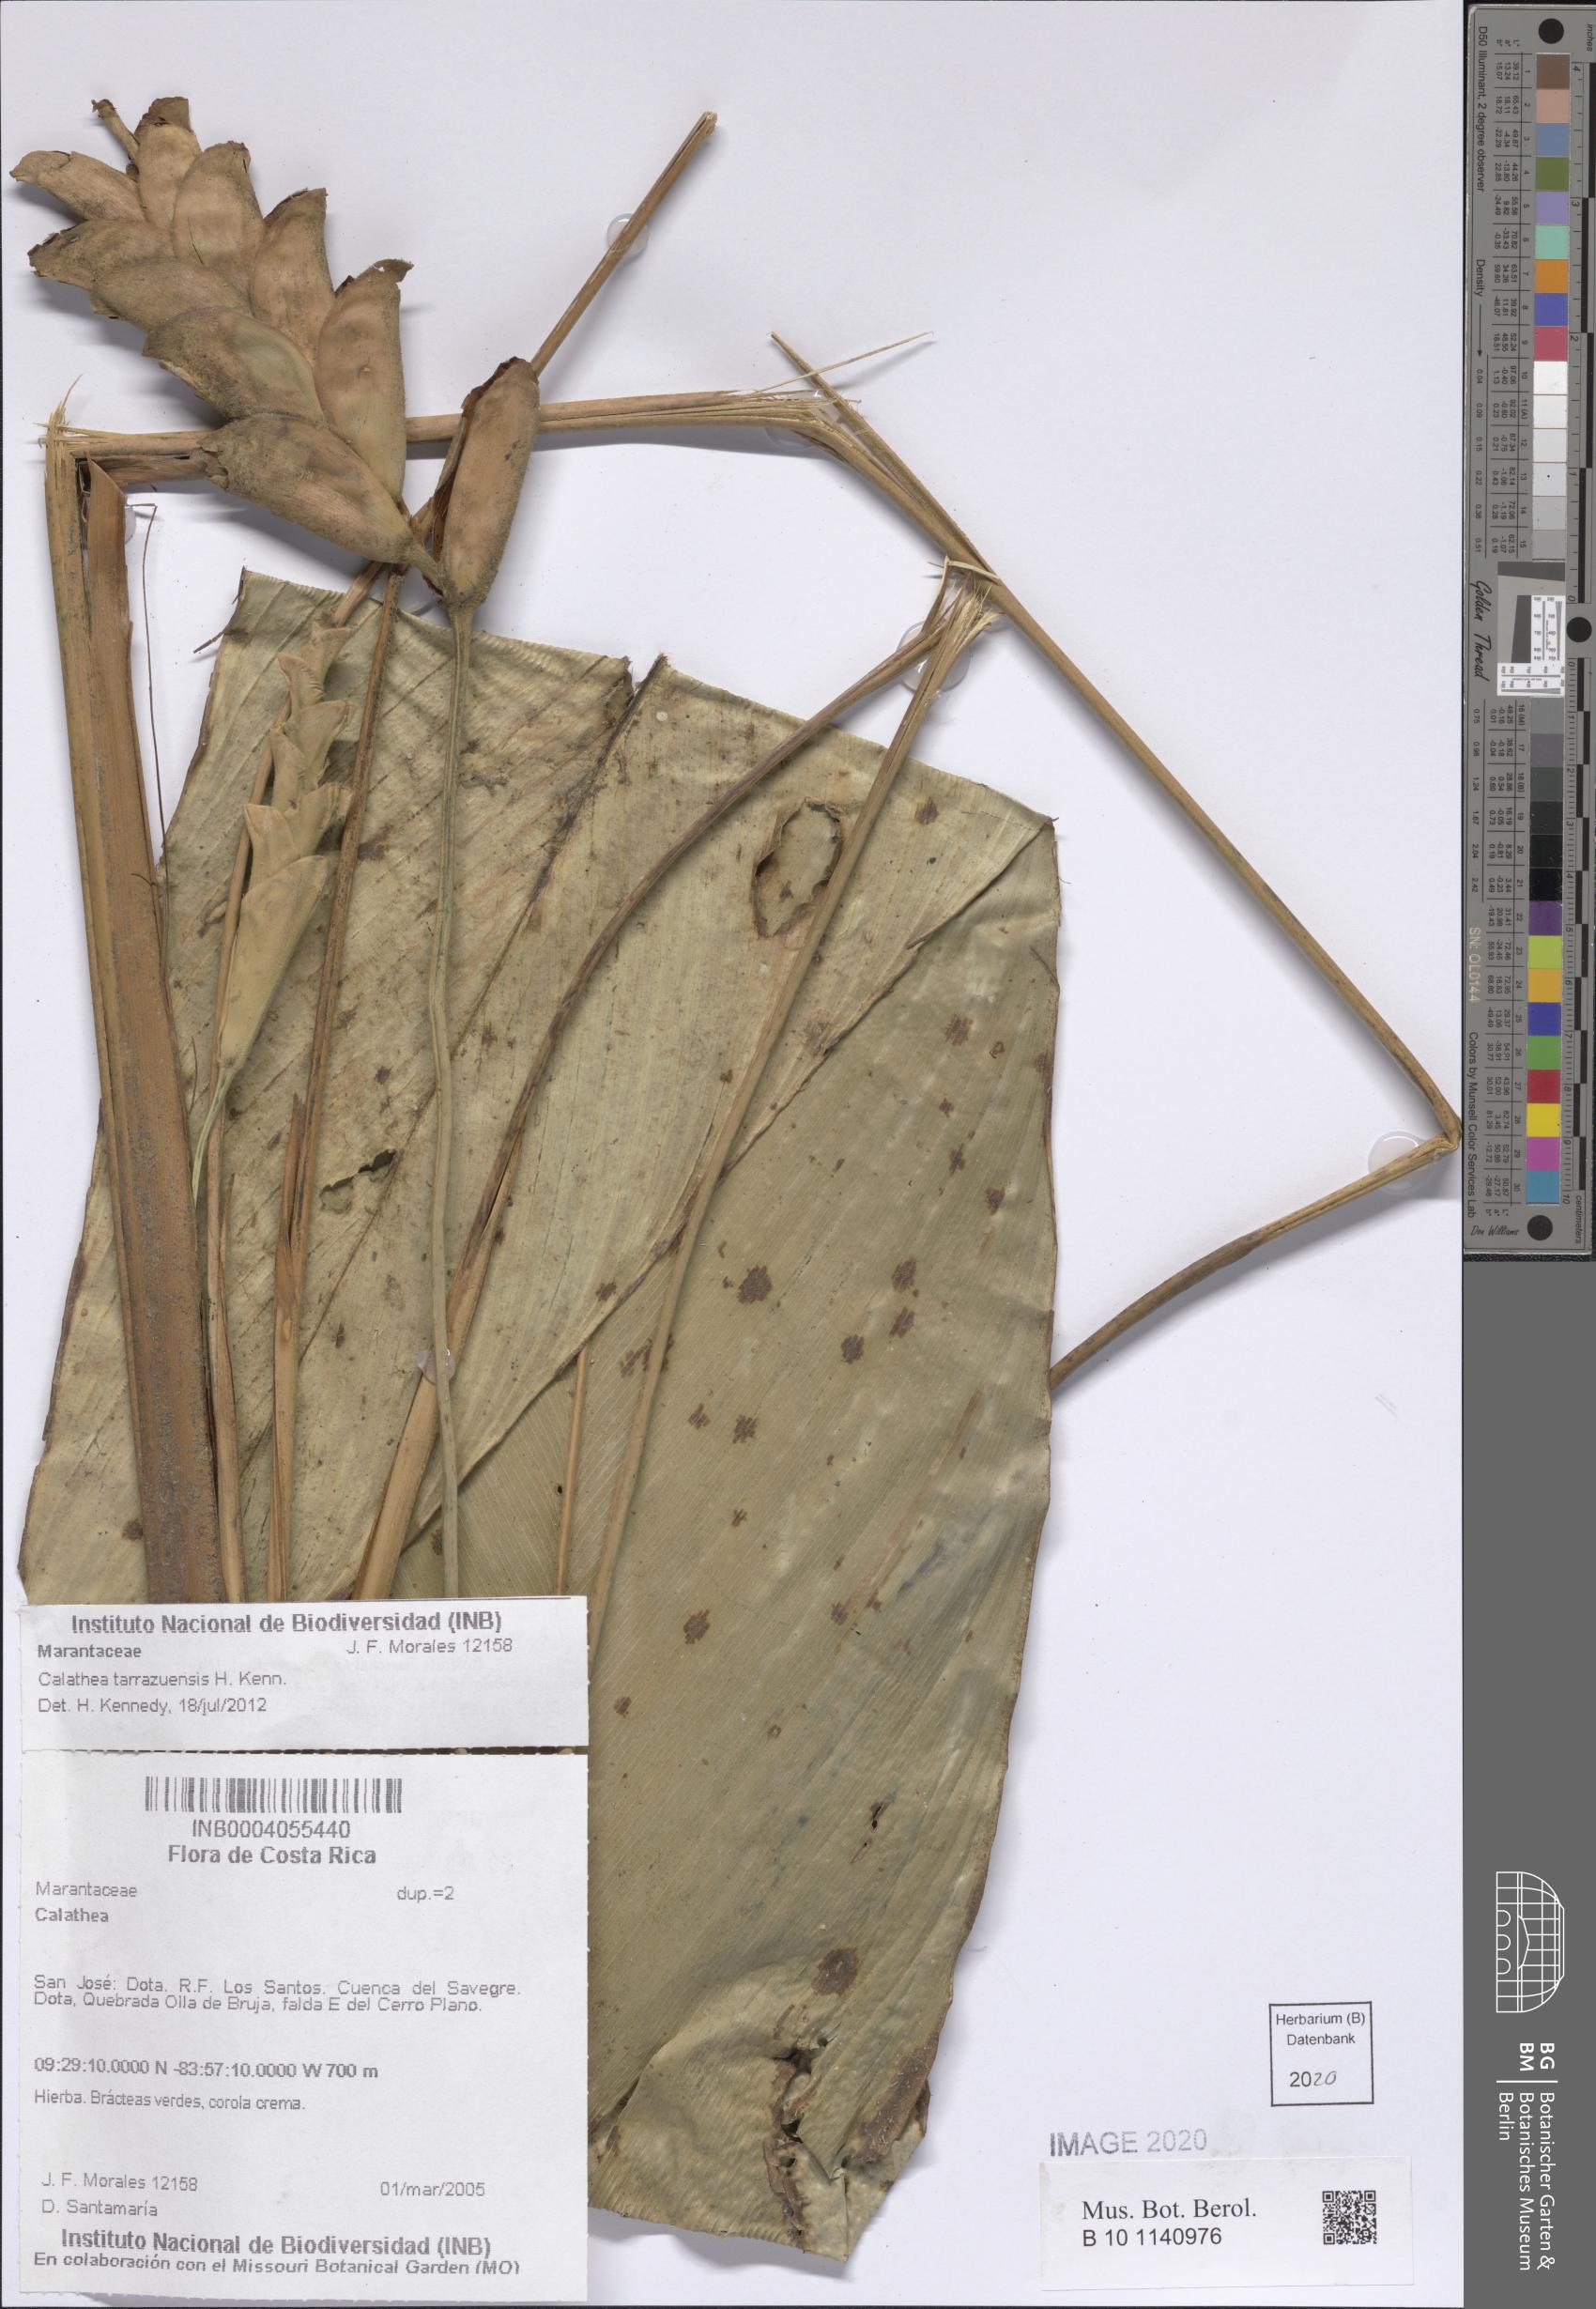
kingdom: Plantae
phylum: Tracheophyta
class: Liliopsida
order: Zingiberales
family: Marantaceae
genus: Calathea
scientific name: Calathea tarrazuensis
